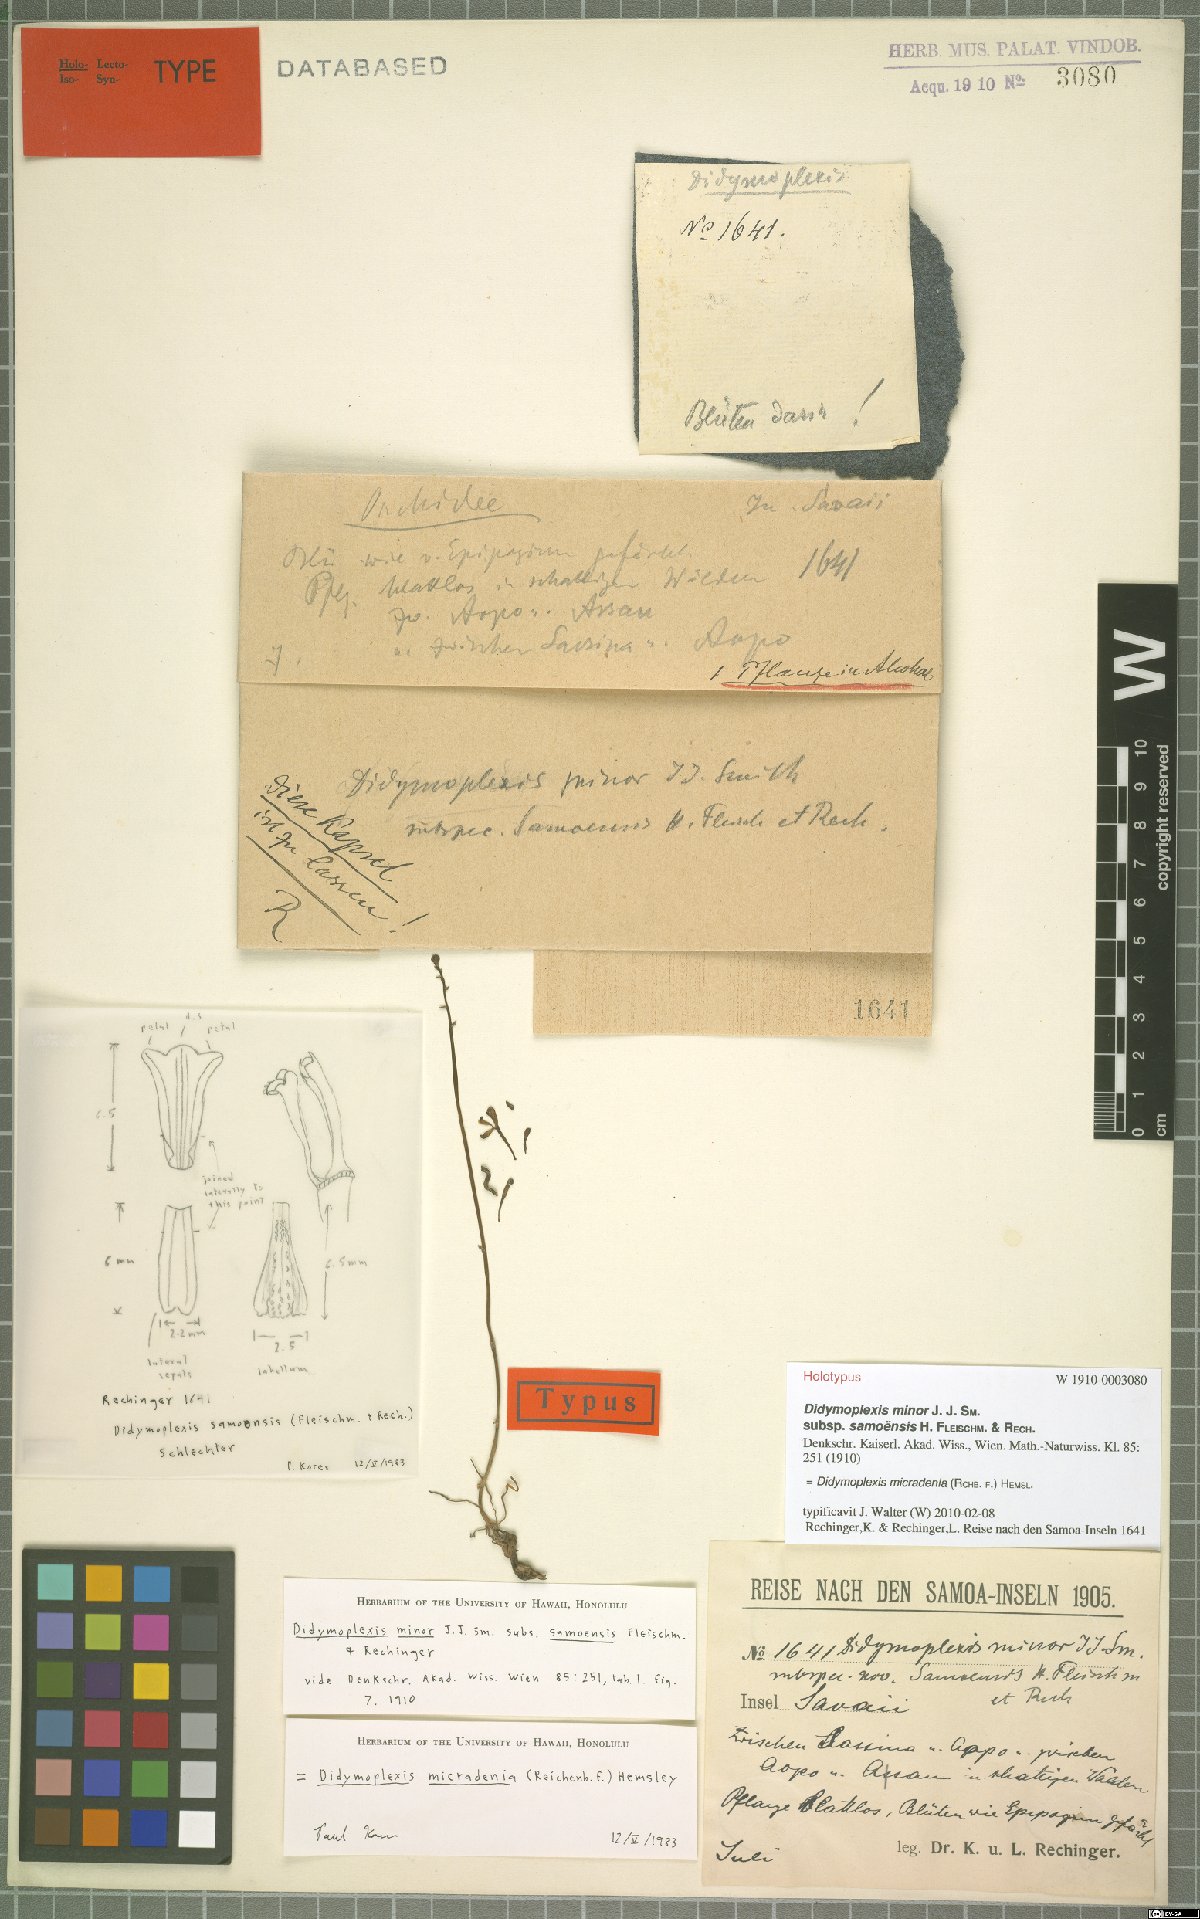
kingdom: Plantae
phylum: Tracheophyta
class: Liliopsida
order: Asparagales
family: Orchidaceae
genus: Didymoplexis
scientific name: Didymoplexis micradenia
